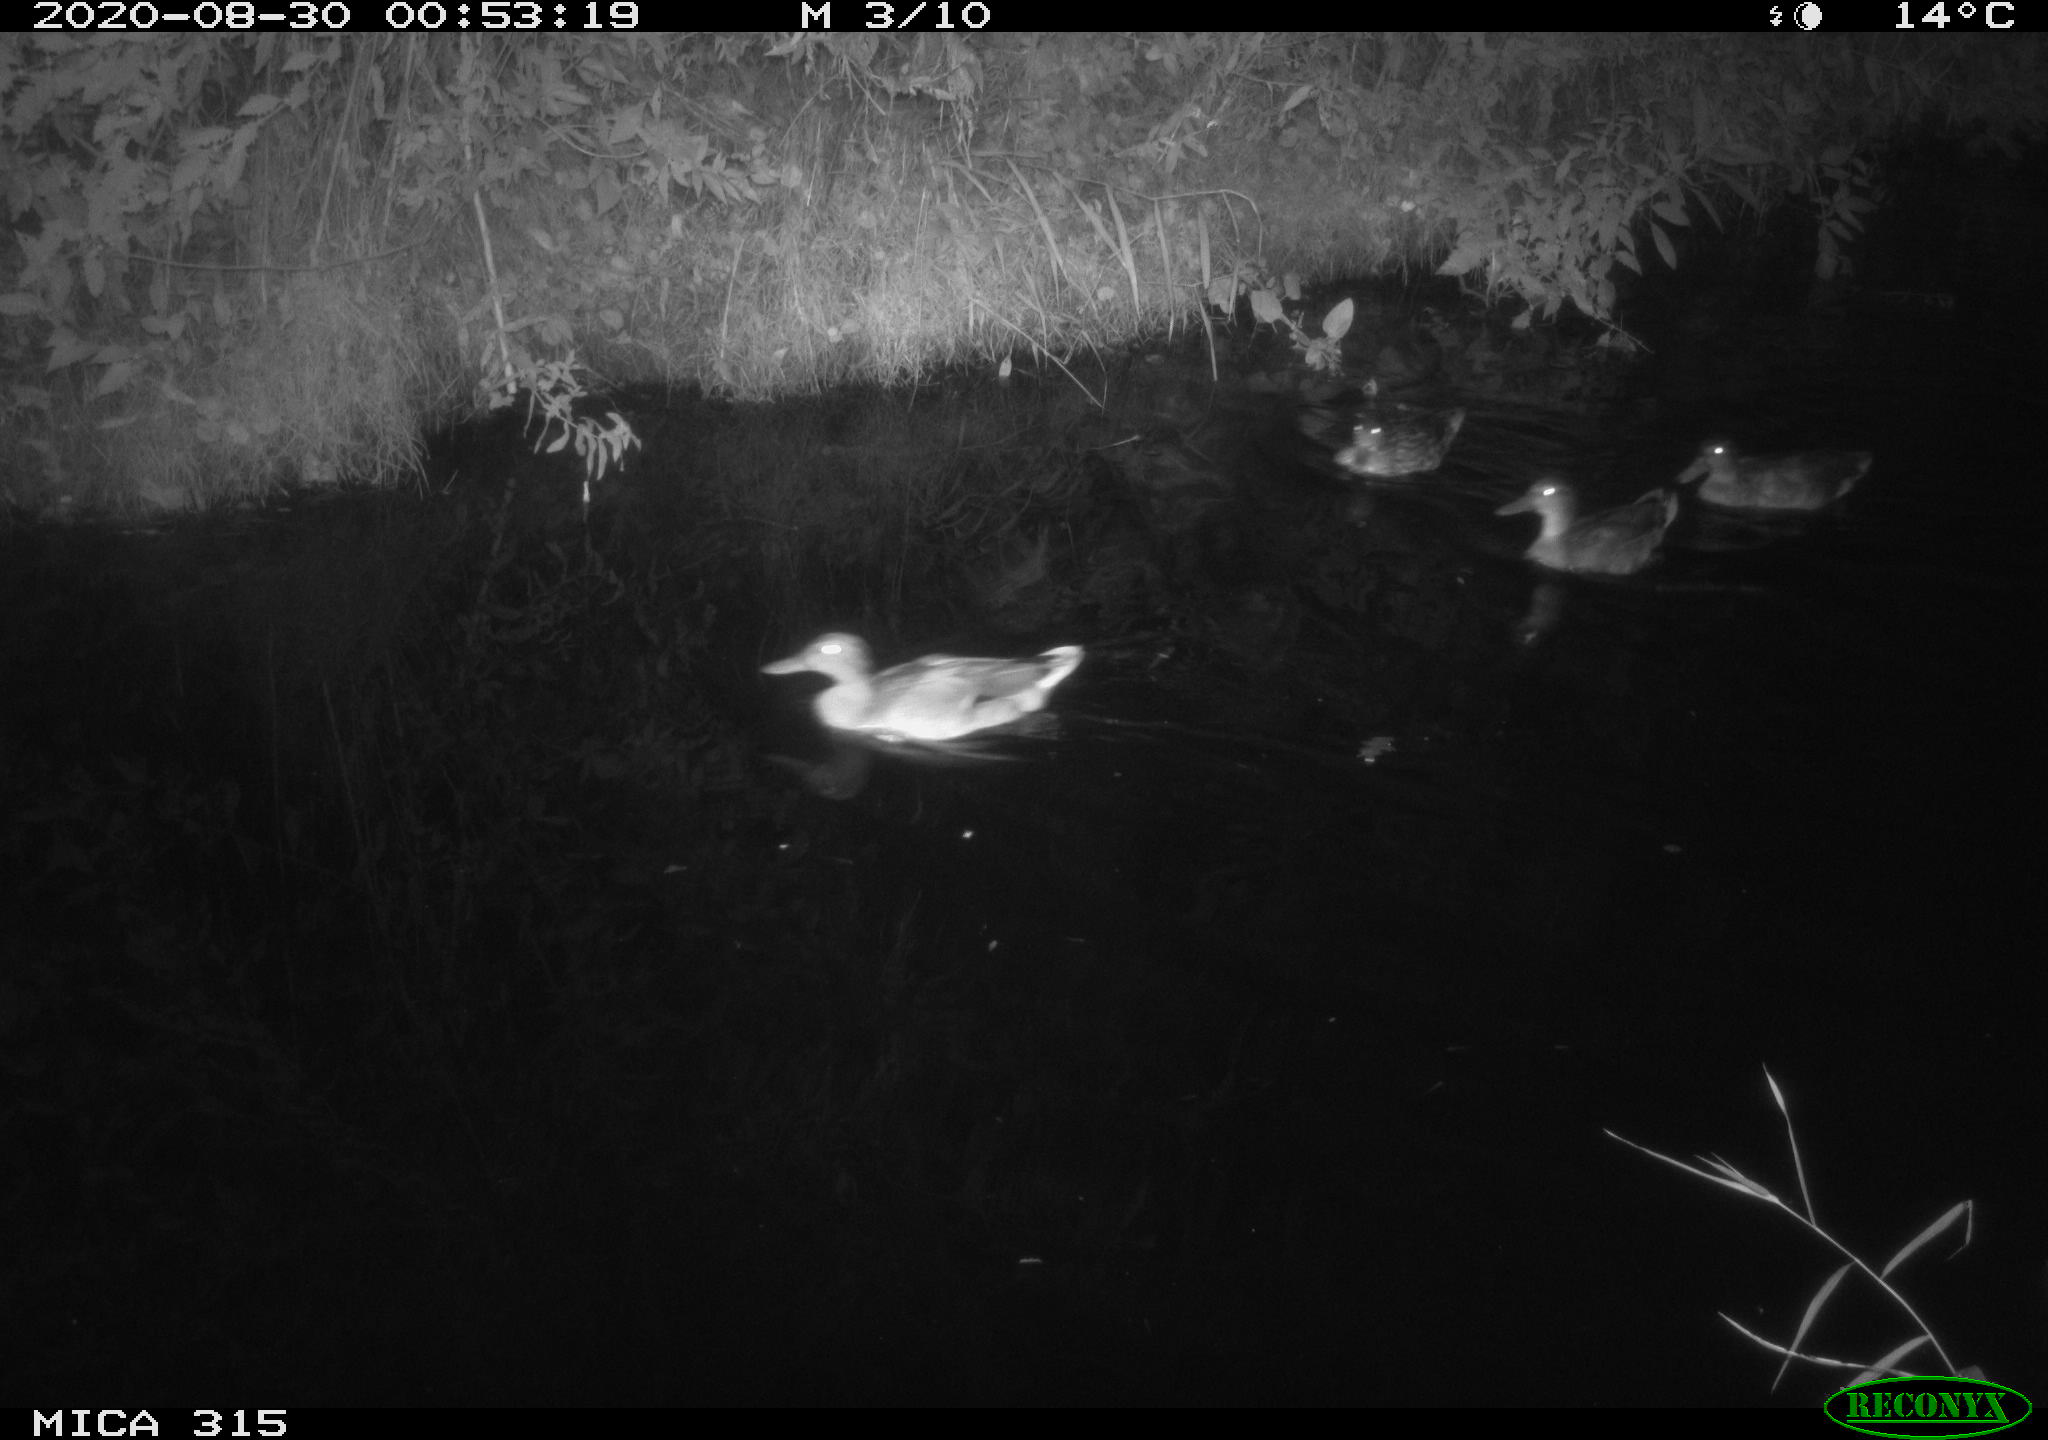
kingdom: Animalia
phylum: Chordata
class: Aves
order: Anseriformes
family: Anatidae
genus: Anas
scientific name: Anas platyrhynchos
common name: Mallard
